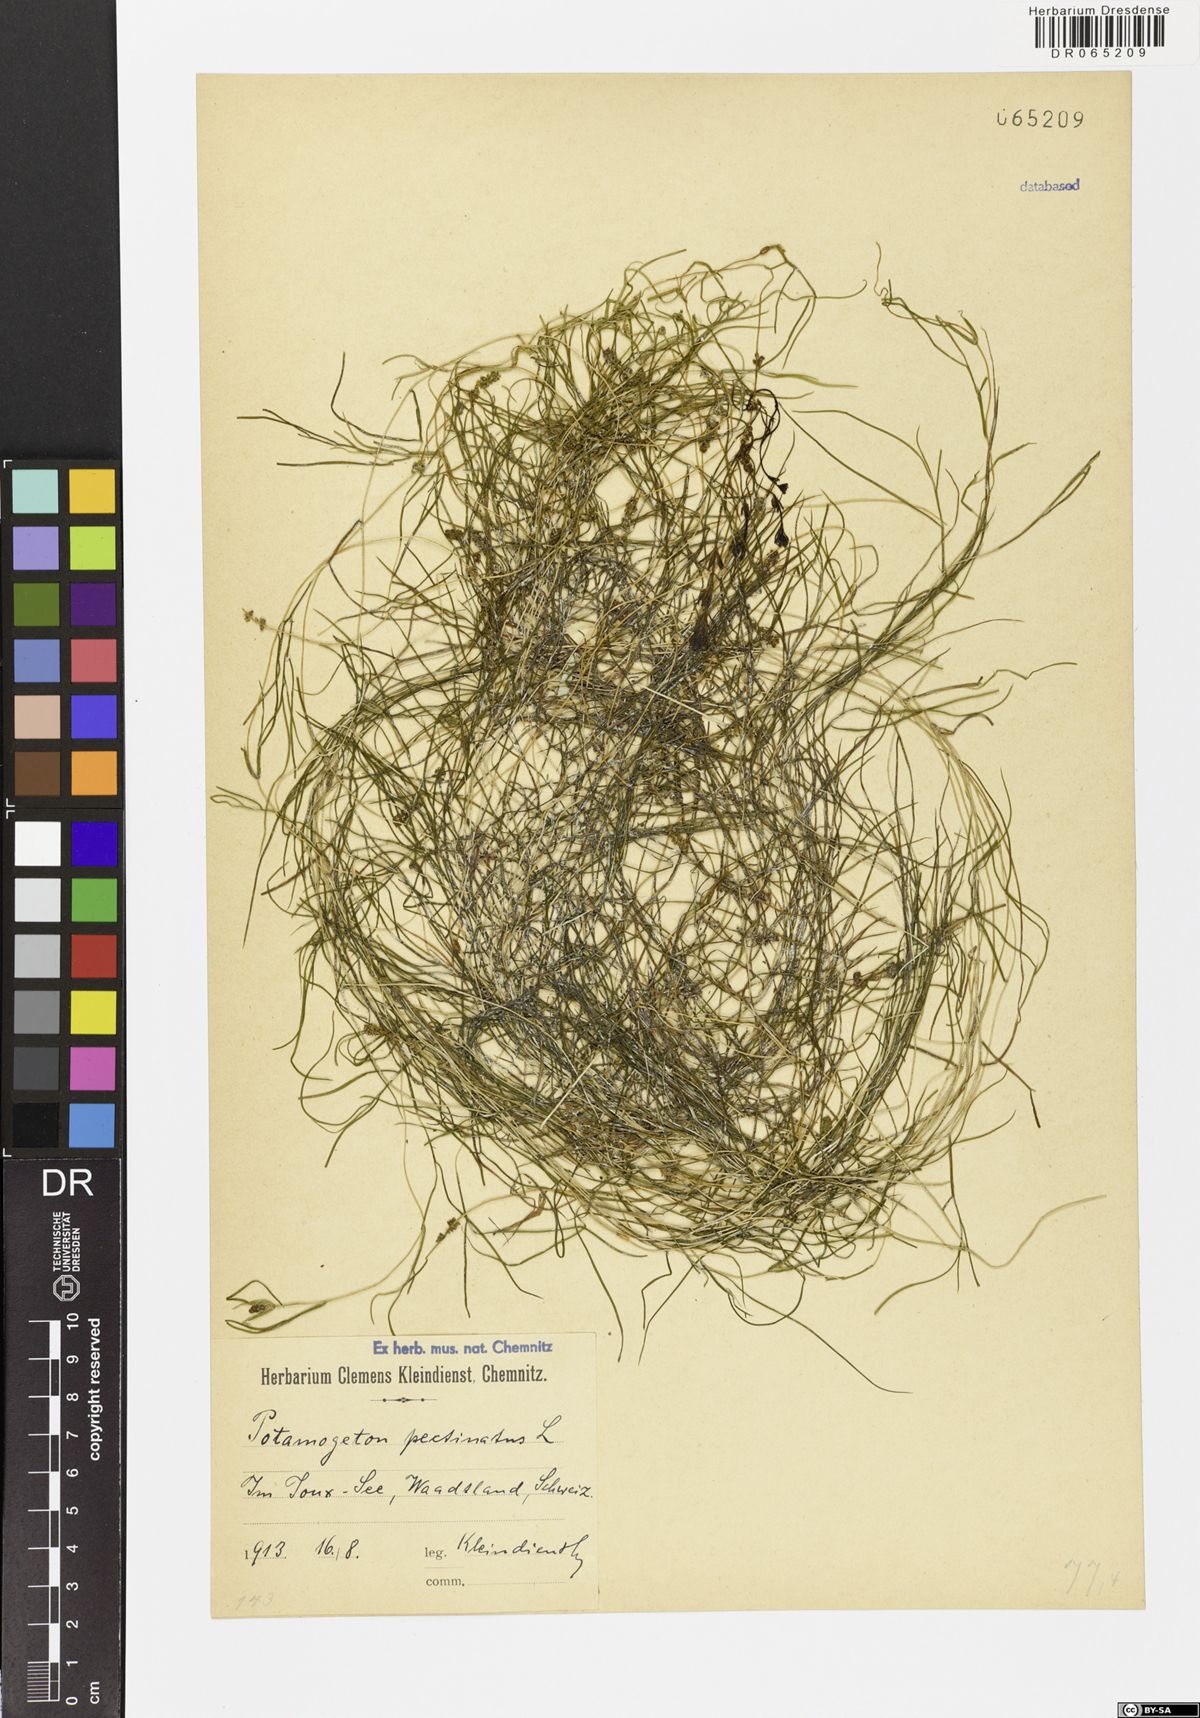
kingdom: Plantae
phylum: Tracheophyta
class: Liliopsida
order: Alismatales
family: Potamogetonaceae
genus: Stuckenia
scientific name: Stuckenia pectinata
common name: Sago pondweed
